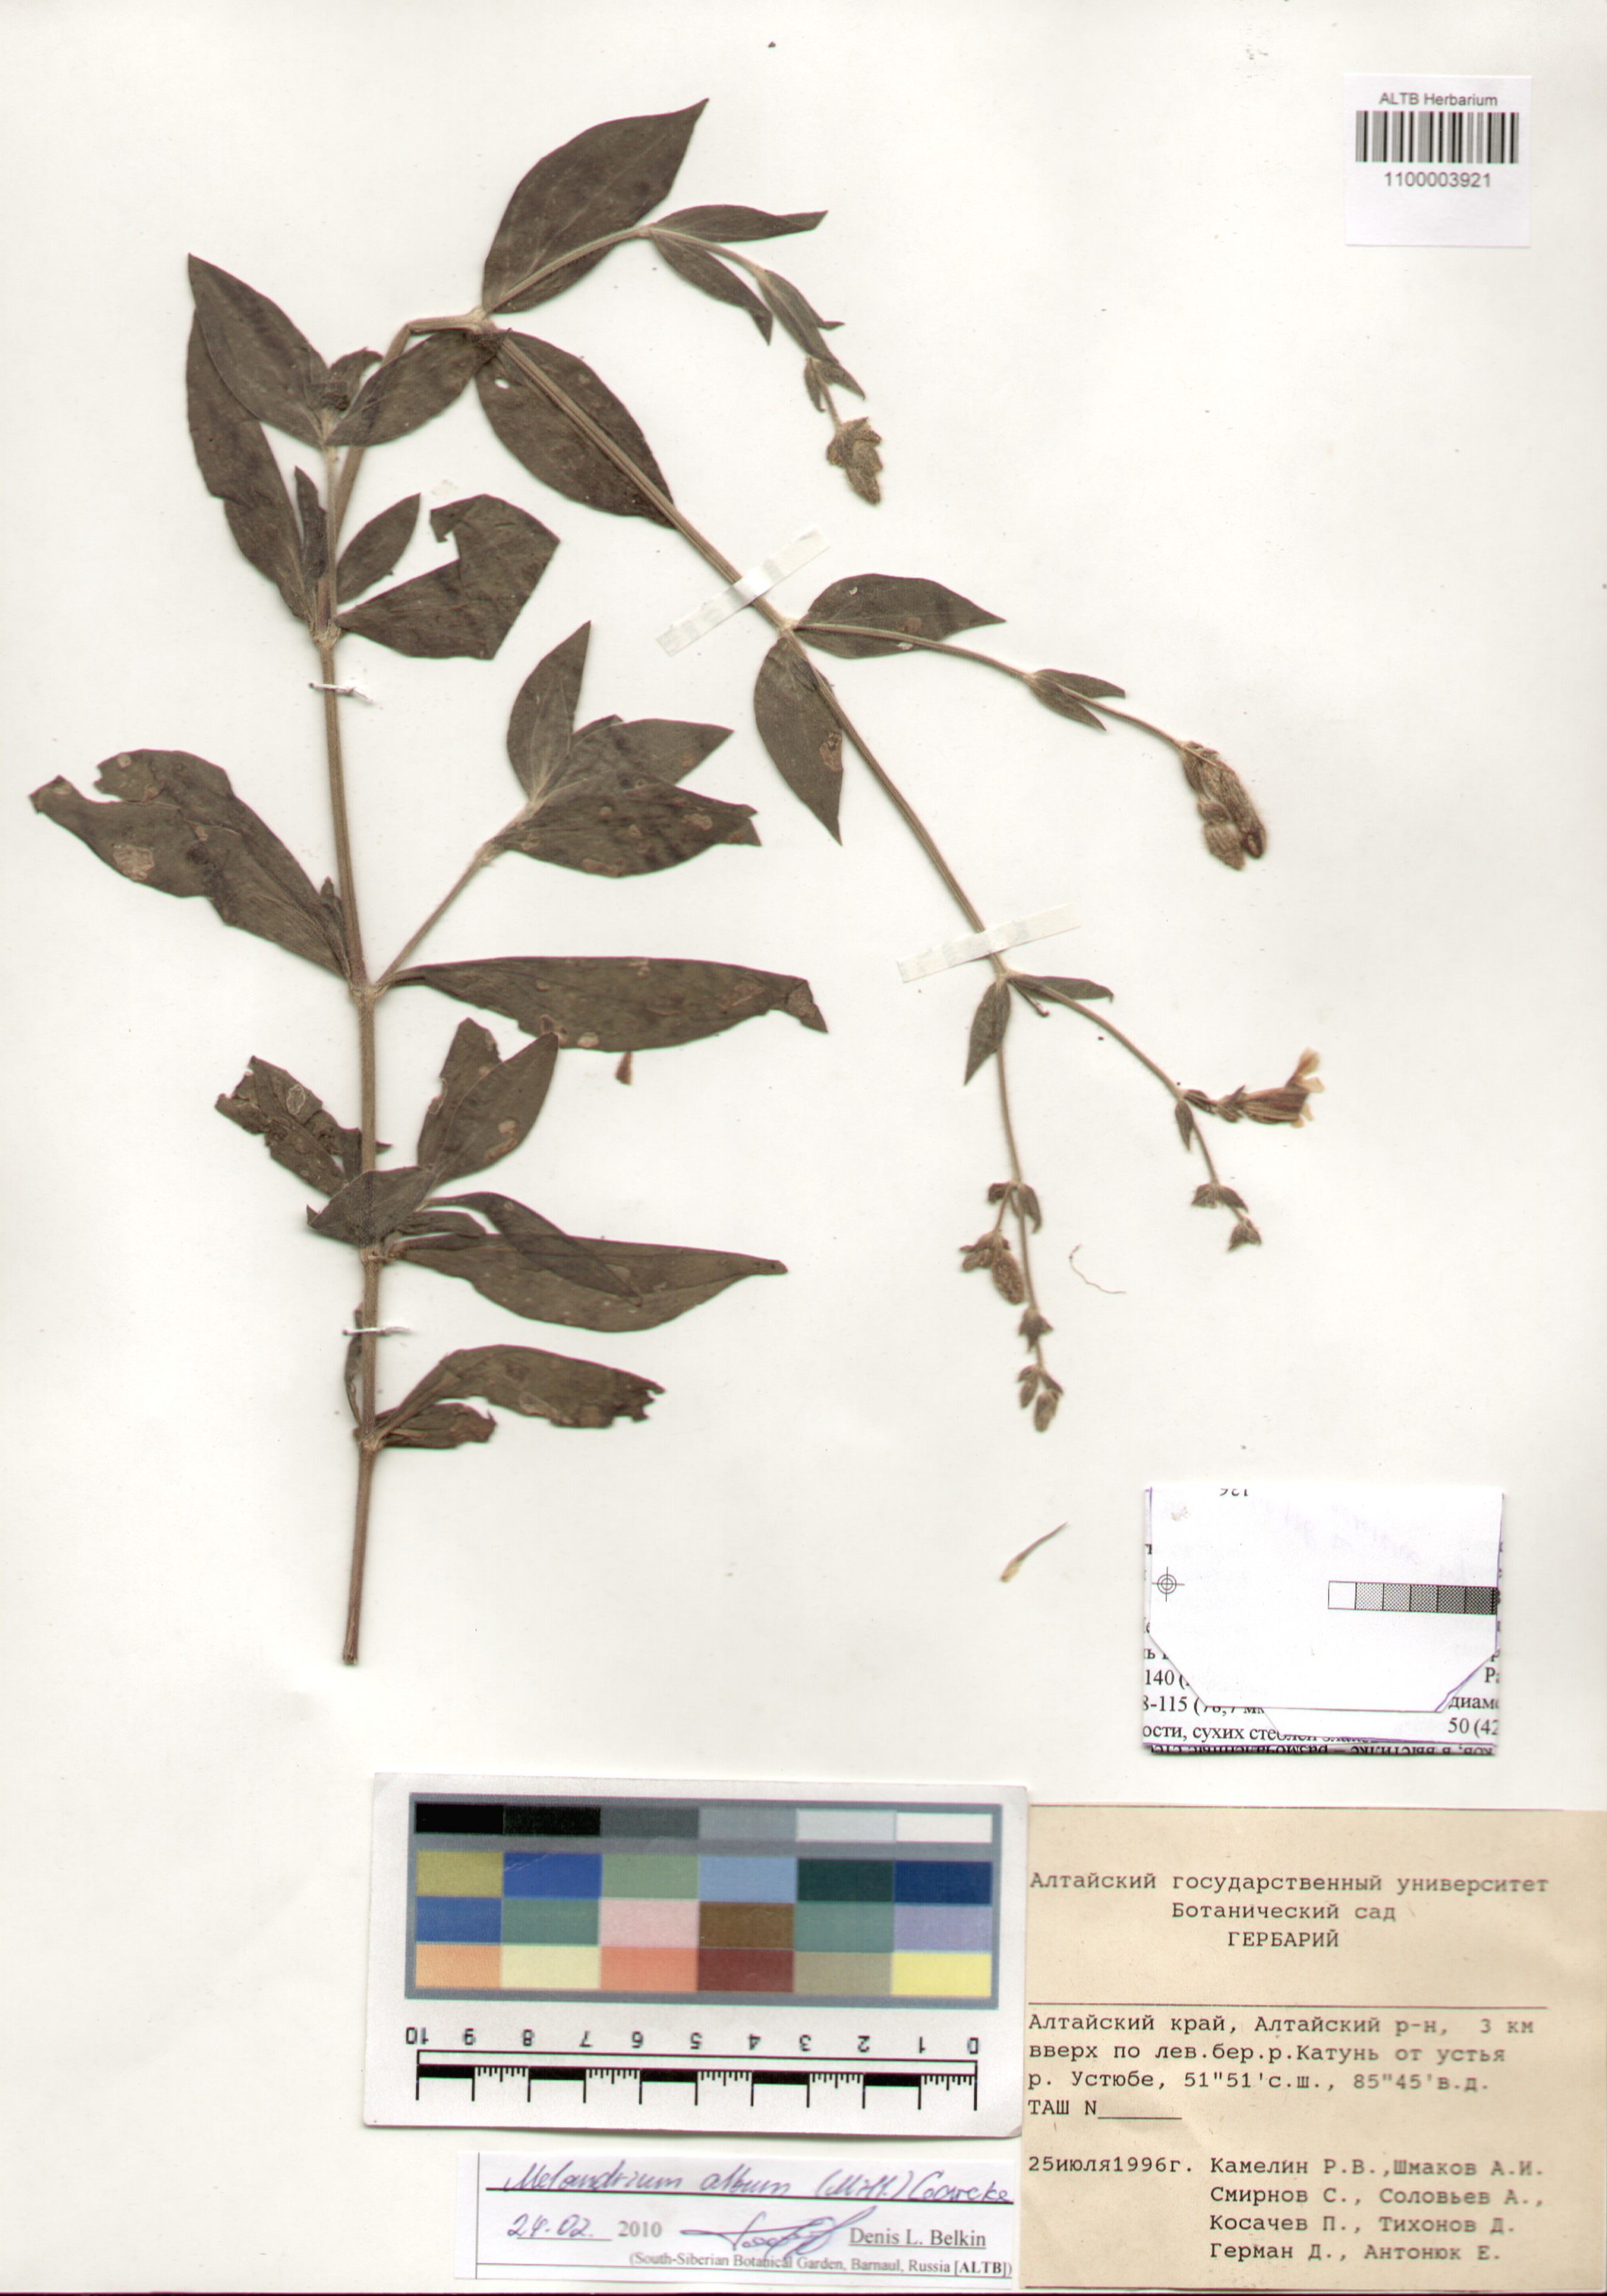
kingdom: Plantae
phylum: Tracheophyta
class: Magnoliopsida
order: Caryophyllales
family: Caryophyllaceae
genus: Silene
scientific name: Silene latifolia
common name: White campion
